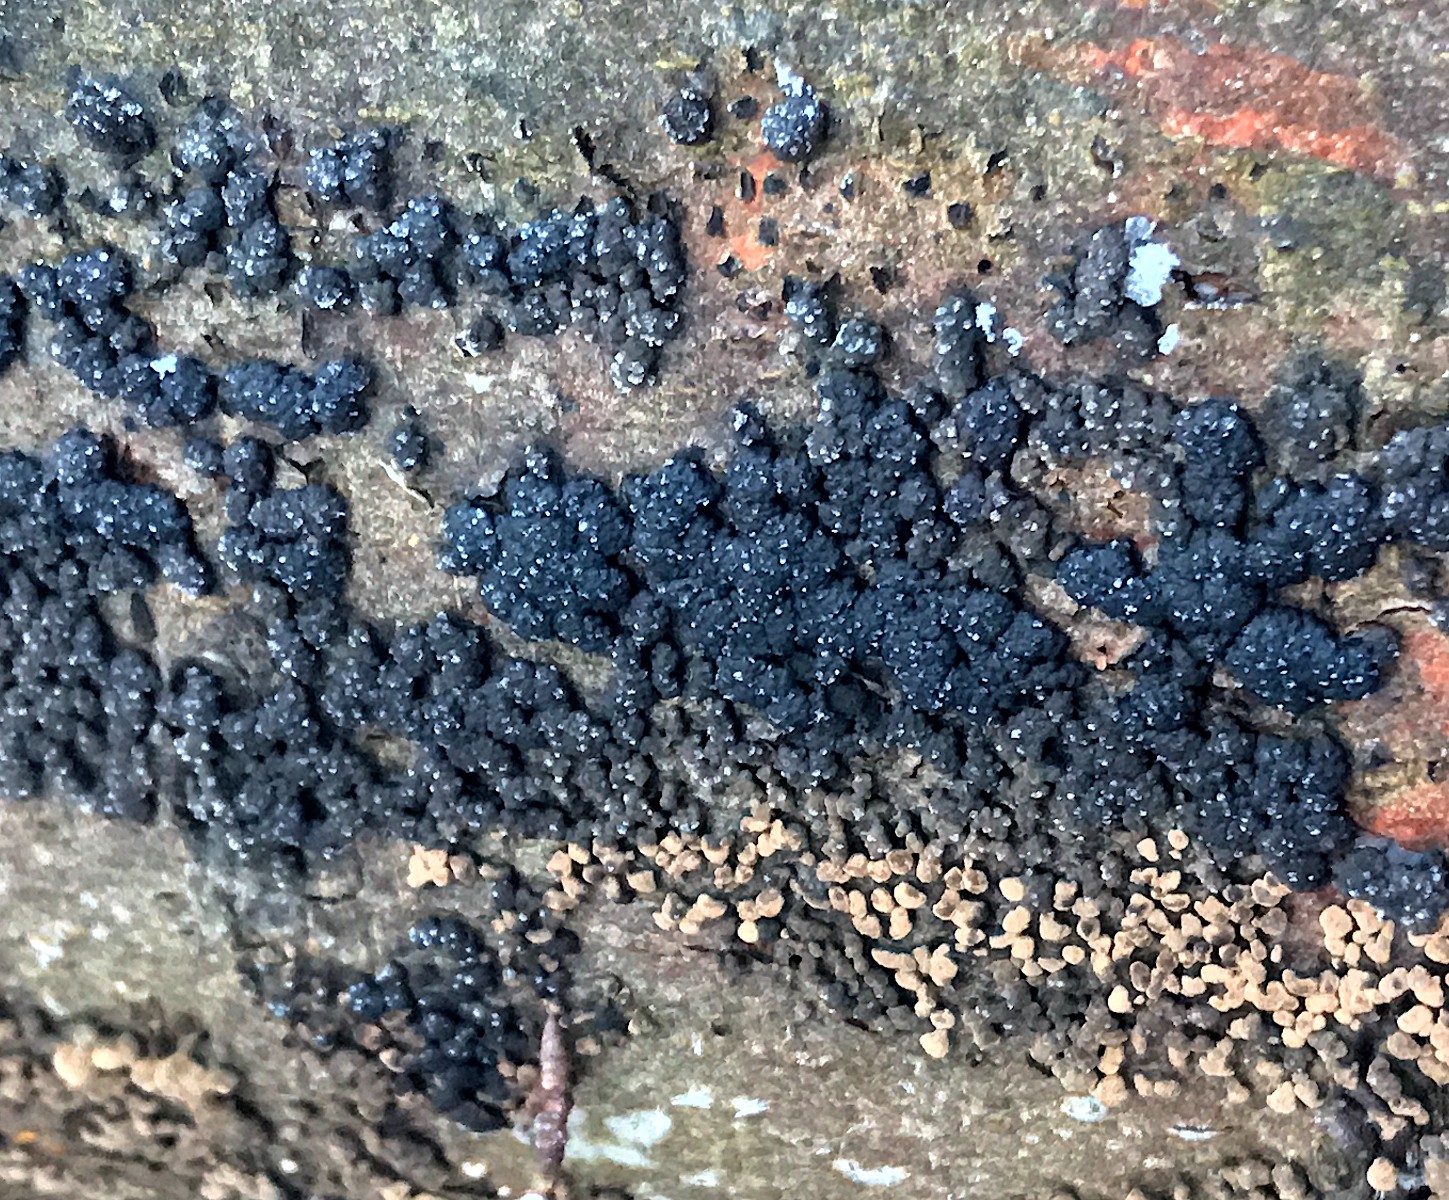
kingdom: Fungi
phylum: Ascomycota
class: Sordariomycetes
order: Xylariales
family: Hypoxylaceae
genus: Hypoxylon
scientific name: Hypoxylon fragiforme
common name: kuljordbær
